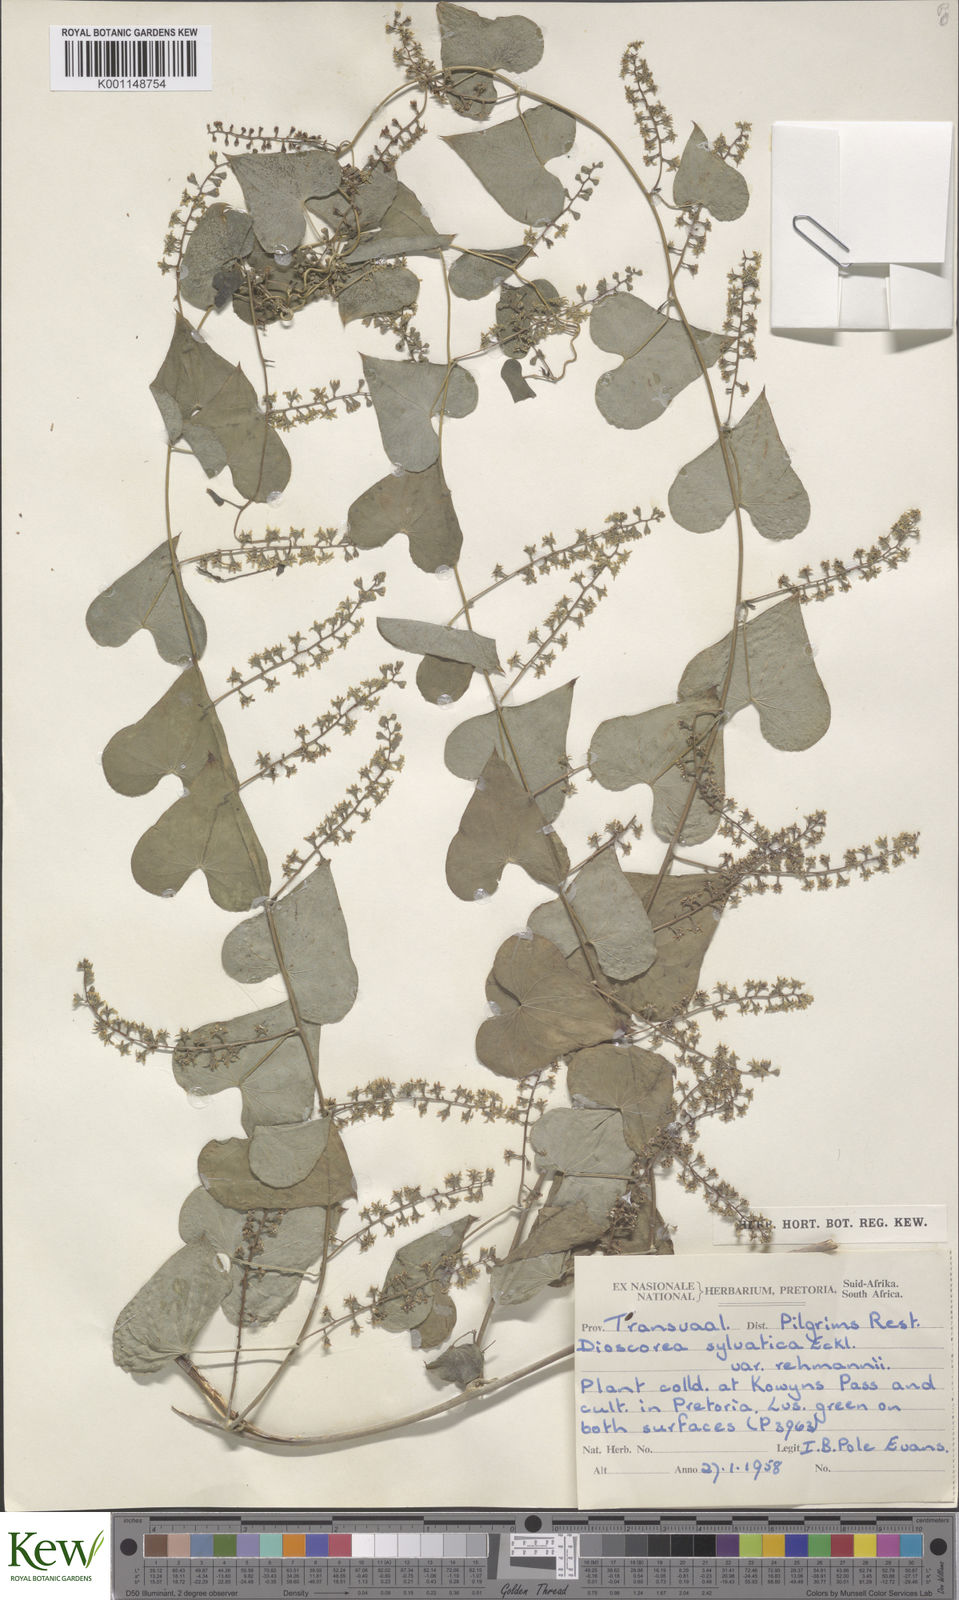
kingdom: Plantae
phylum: Tracheophyta
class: Liliopsida
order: Dioscoreales
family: Dioscoreaceae
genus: Dioscorea
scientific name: Dioscorea sylvatica
